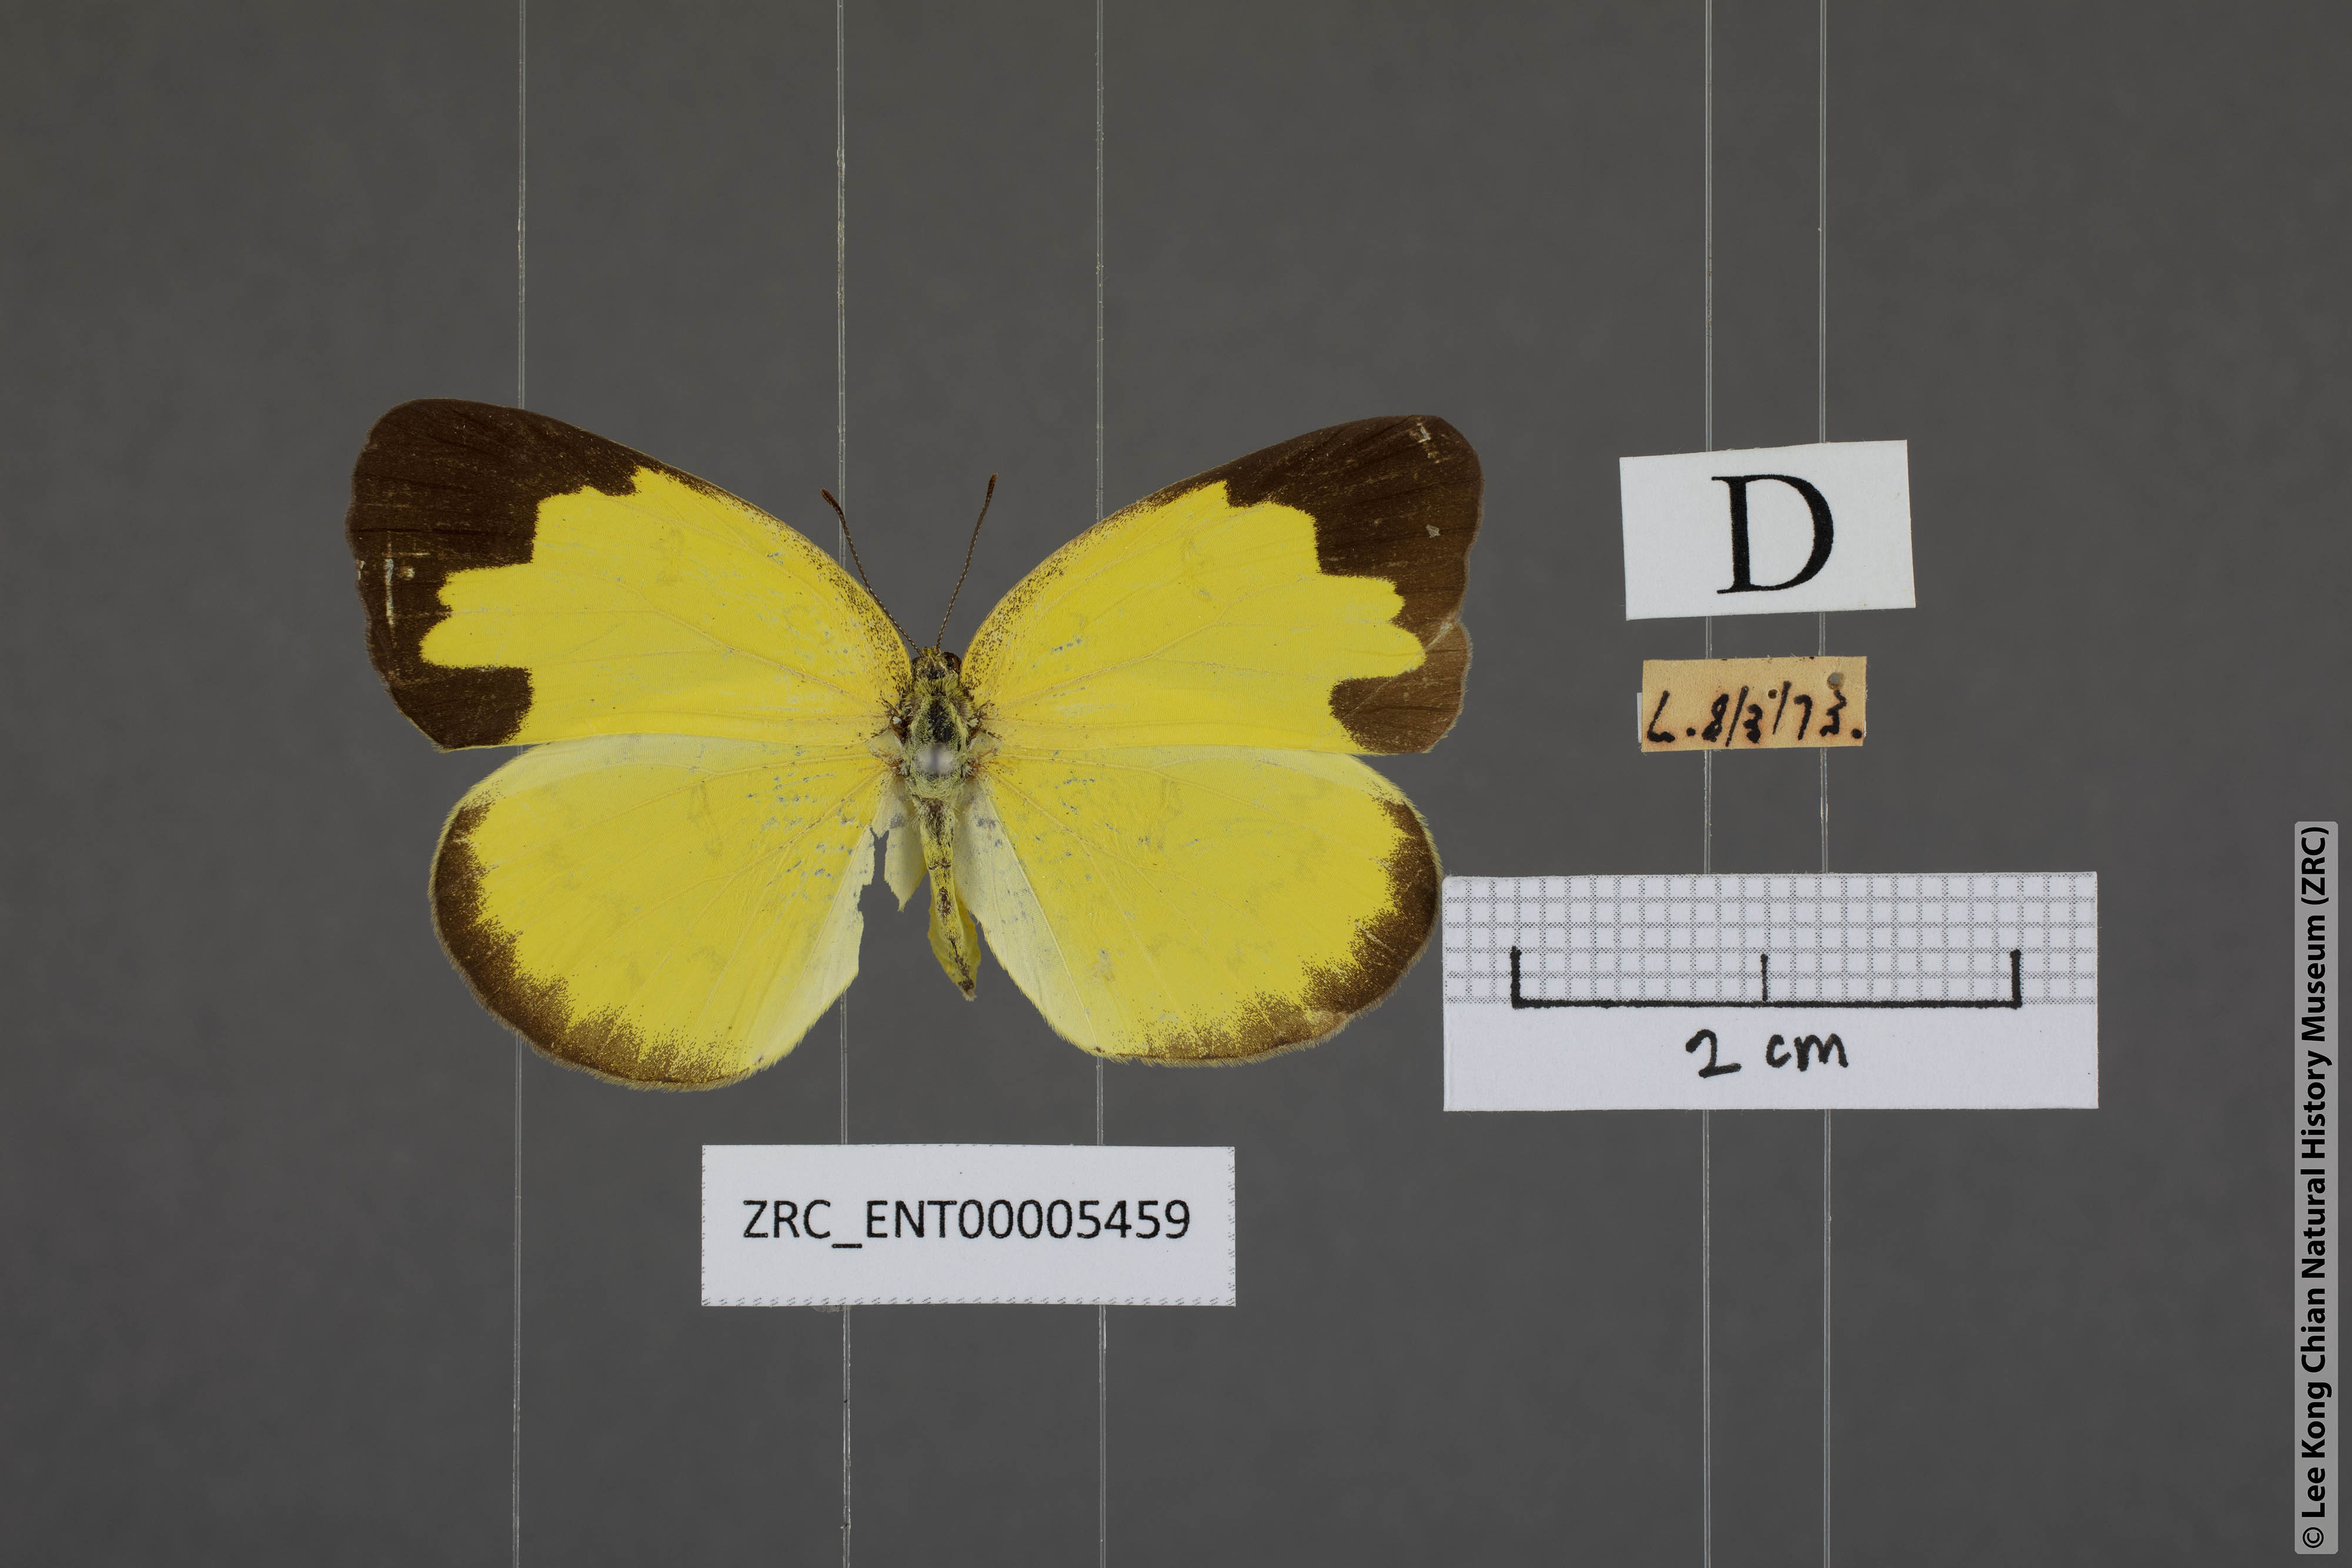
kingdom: Animalia
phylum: Arthropoda
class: Insecta
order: Lepidoptera
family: Pieridae
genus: Eurema
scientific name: Eurema lacteola
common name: Scarce grass yellow
